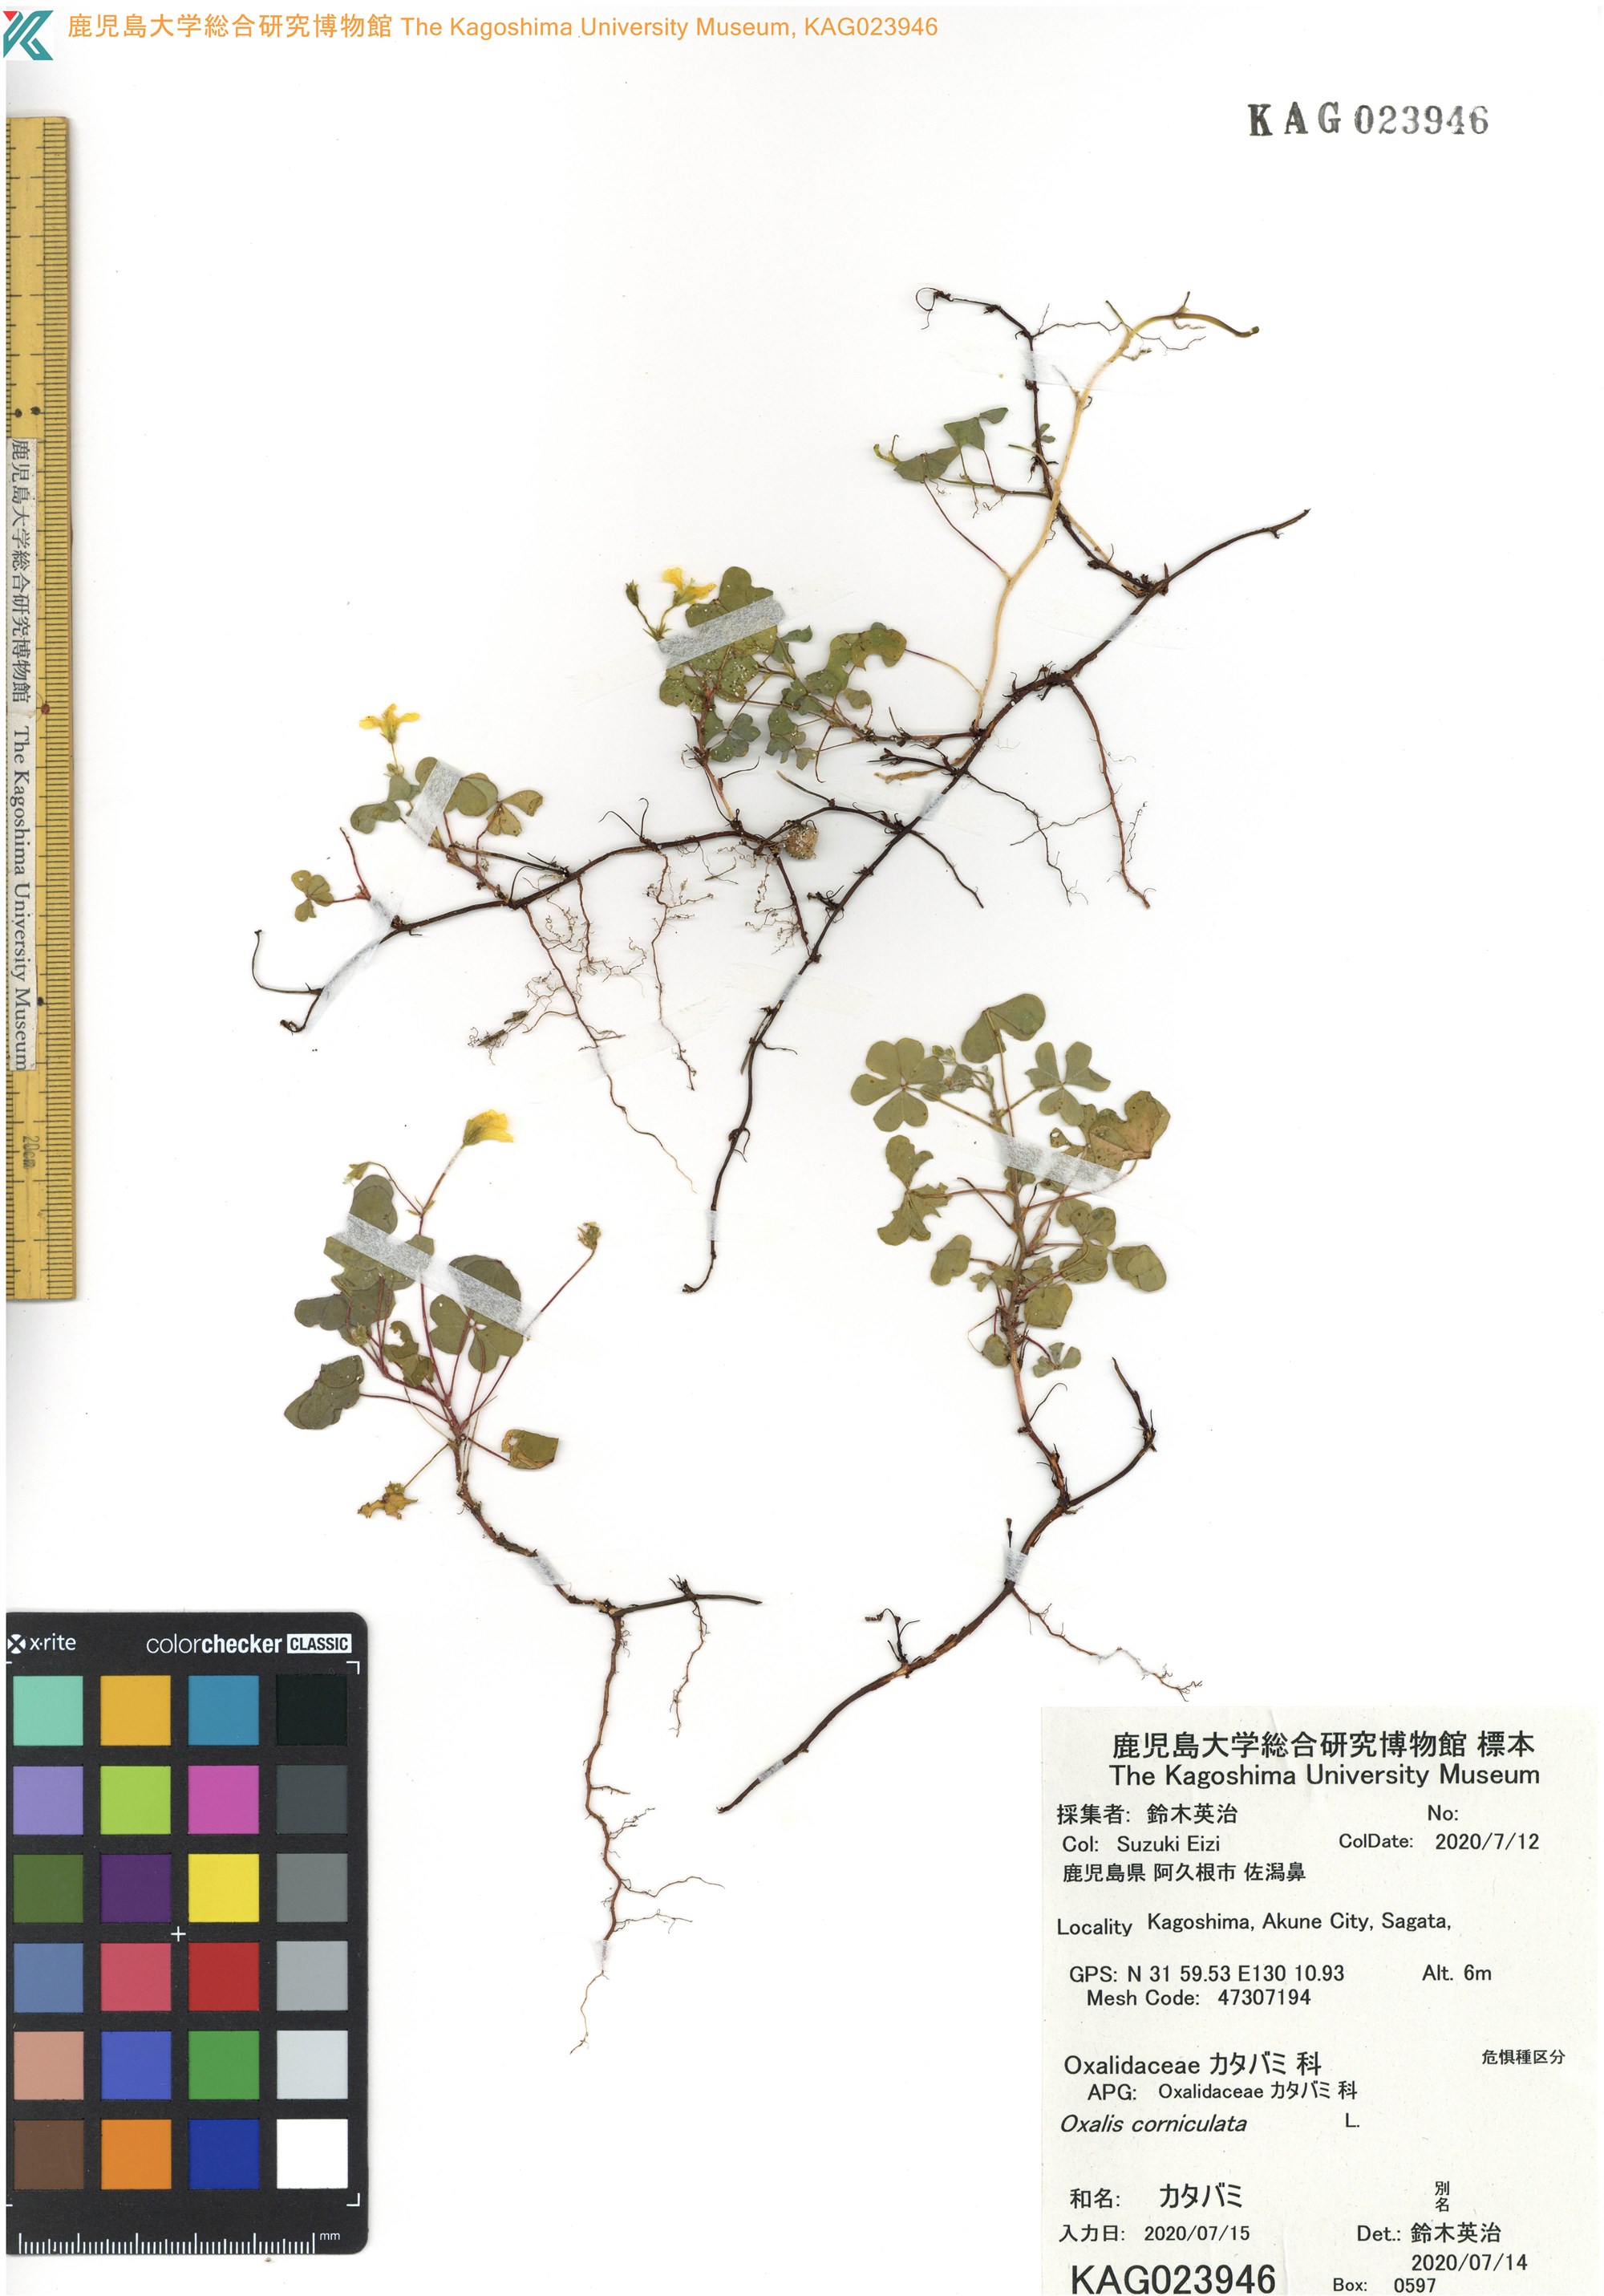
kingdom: Plantae
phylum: Tracheophyta
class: Magnoliopsida
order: Oxalidales
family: Oxalidaceae
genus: Oxalis
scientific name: Oxalis corniculata
